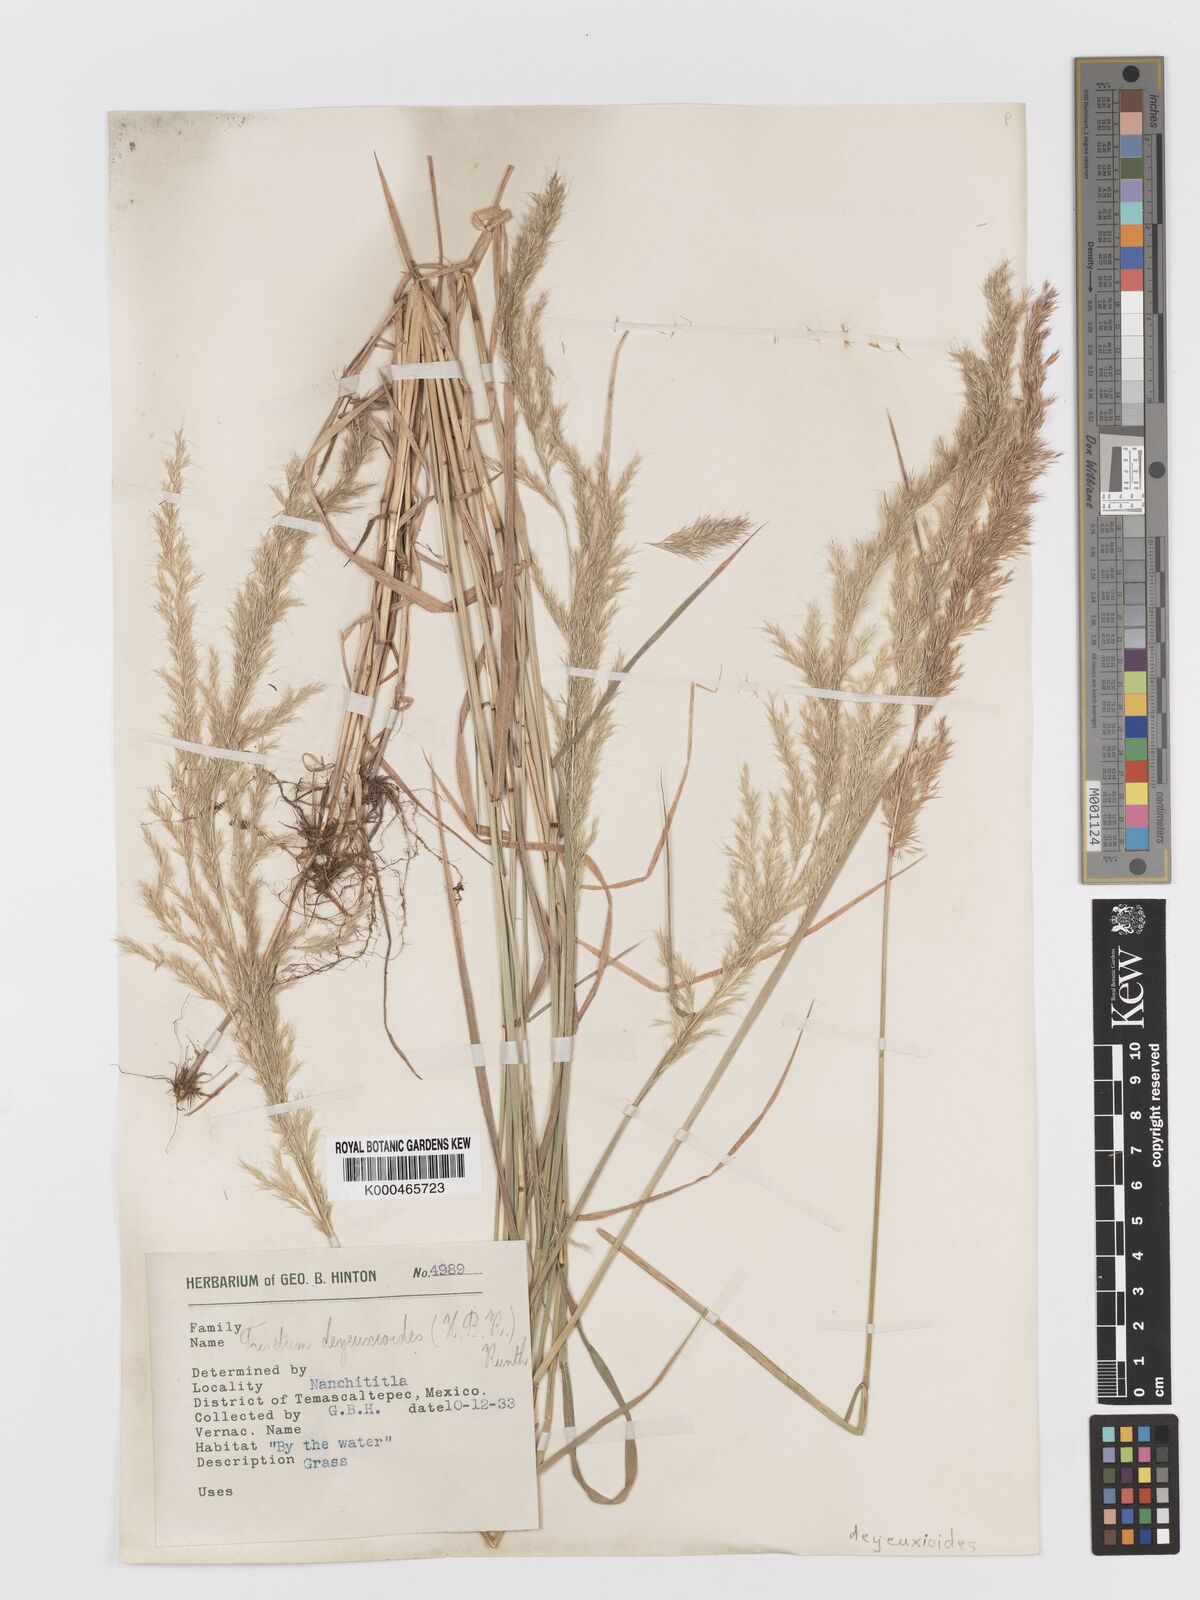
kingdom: Plantae
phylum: Tracheophyta
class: Liliopsida
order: Poales
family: Poaceae
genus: Peyritschia
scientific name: Peyritschia deyeuxioides
